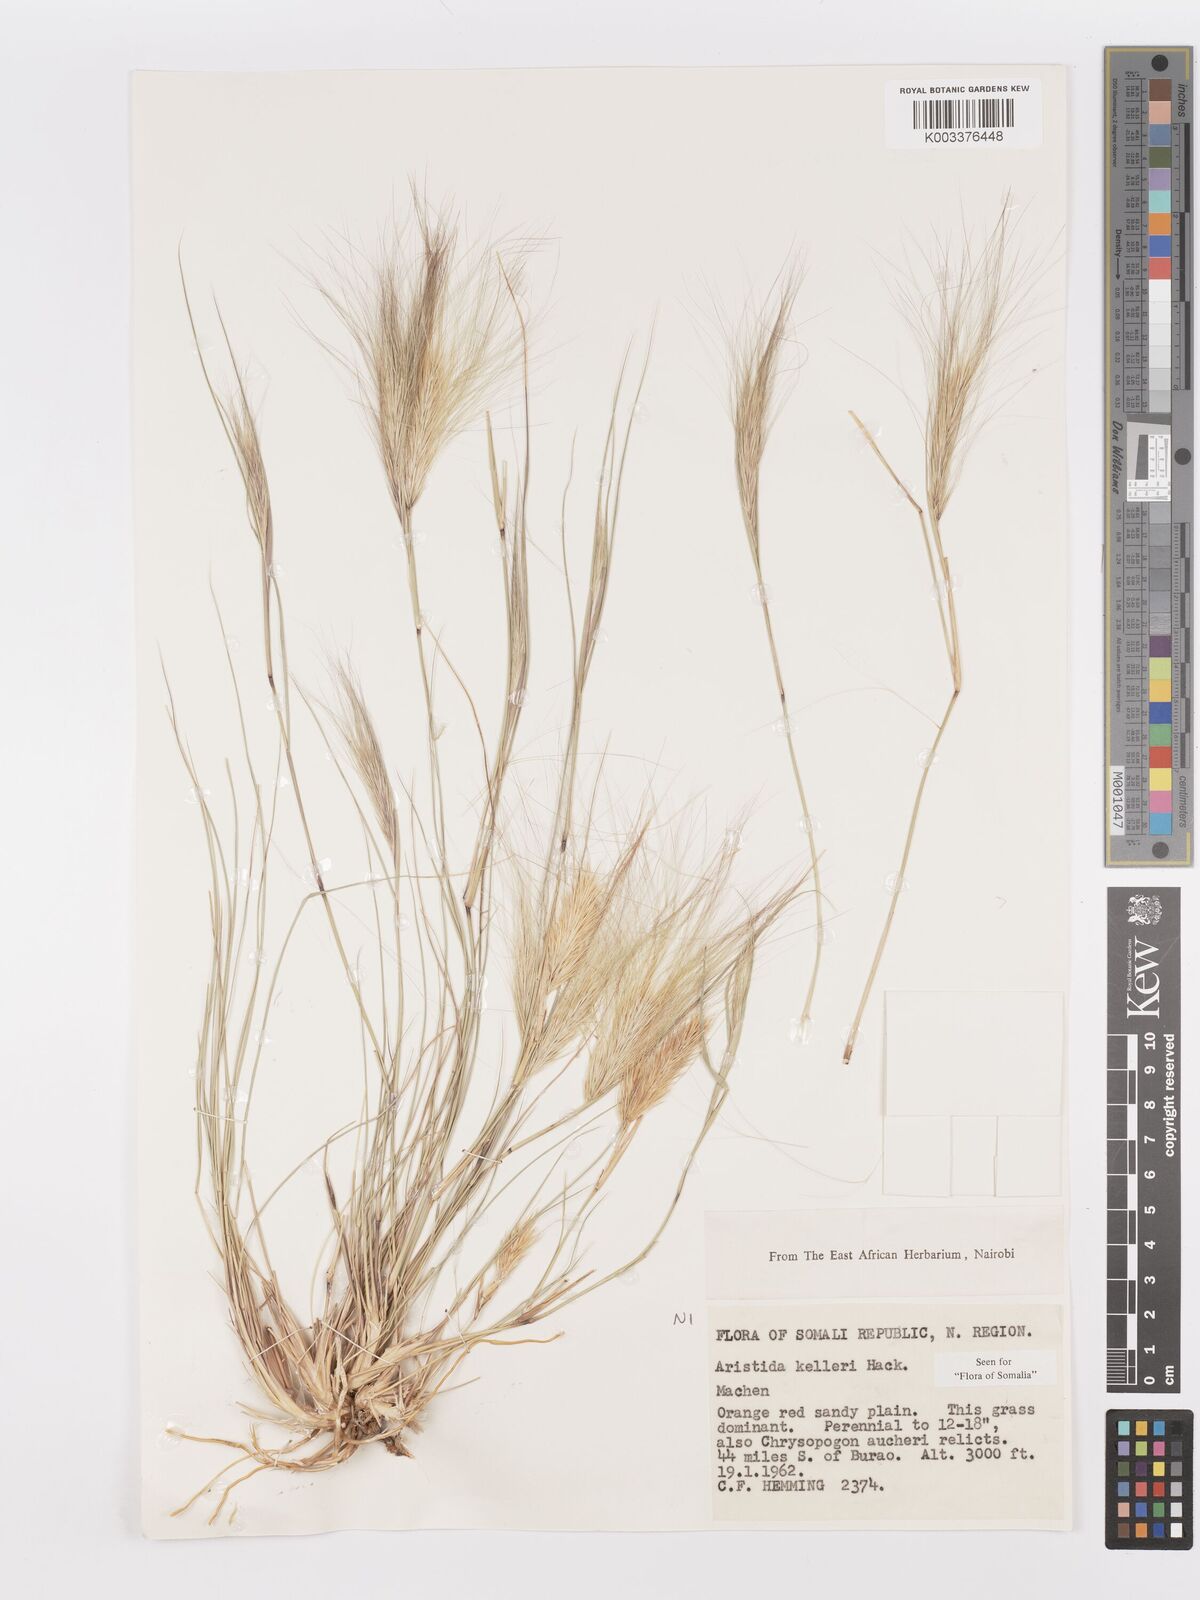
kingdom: Plantae
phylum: Tracheophyta
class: Liliopsida
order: Poales
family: Poaceae
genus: Aristida
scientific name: Aristida kelleri
